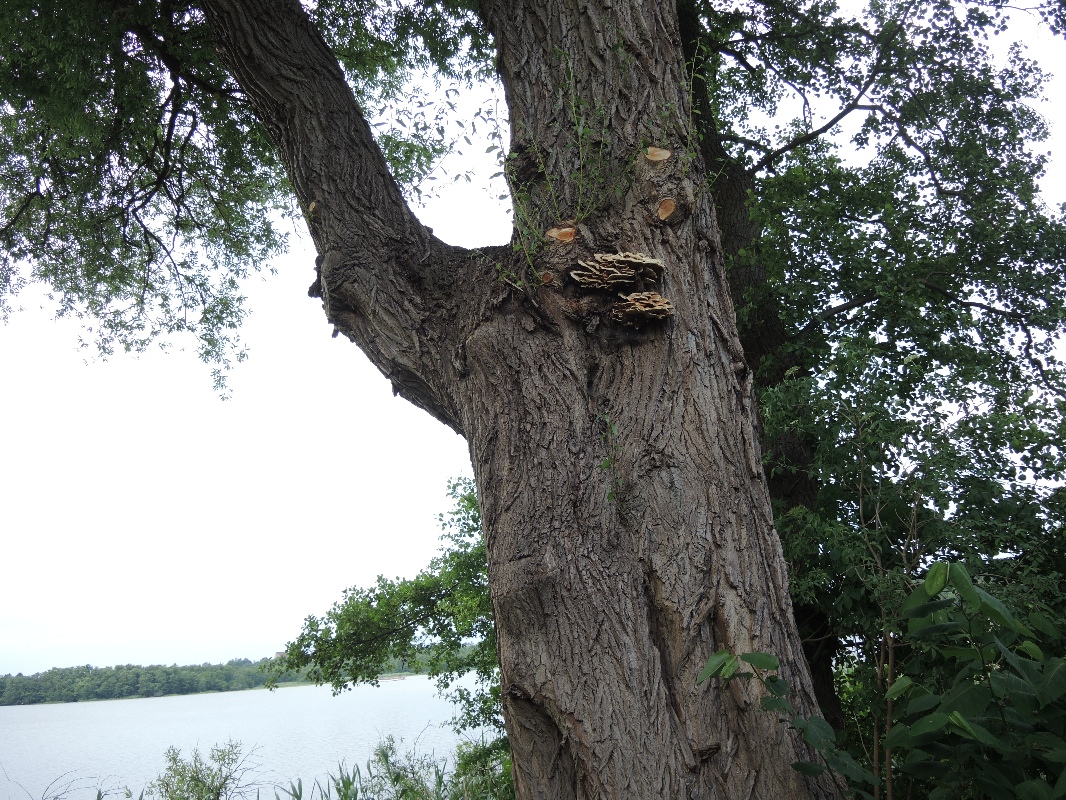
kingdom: Fungi
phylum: Basidiomycota
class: Agaricomycetes
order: Polyporales
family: Laetiporaceae
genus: Laetiporus
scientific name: Laetiporus sulphureus
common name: svovlporesvamp
